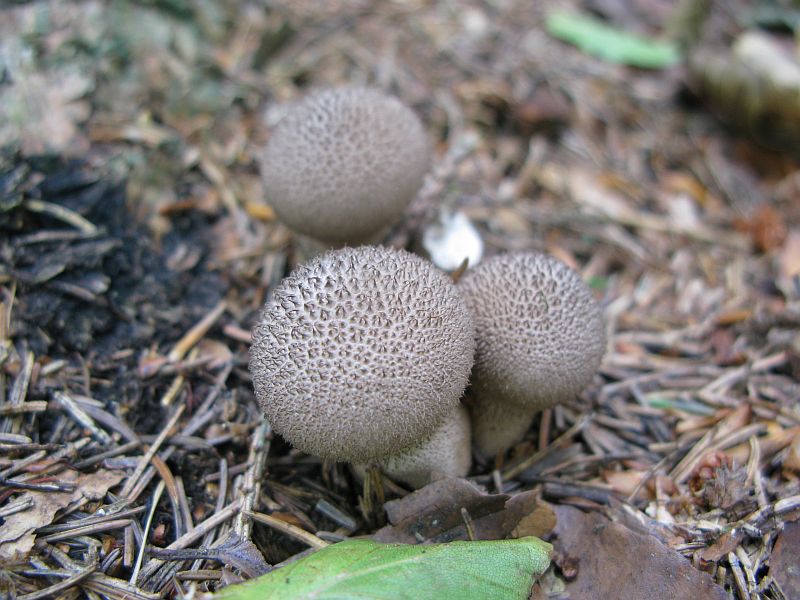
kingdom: Fungi
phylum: Basidiomycota
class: Agaricomycetes
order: Agaricales
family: Lycoperdaceae
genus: Lycoperdon
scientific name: Lycoperdon nigrescens
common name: sortagtig støvbold
